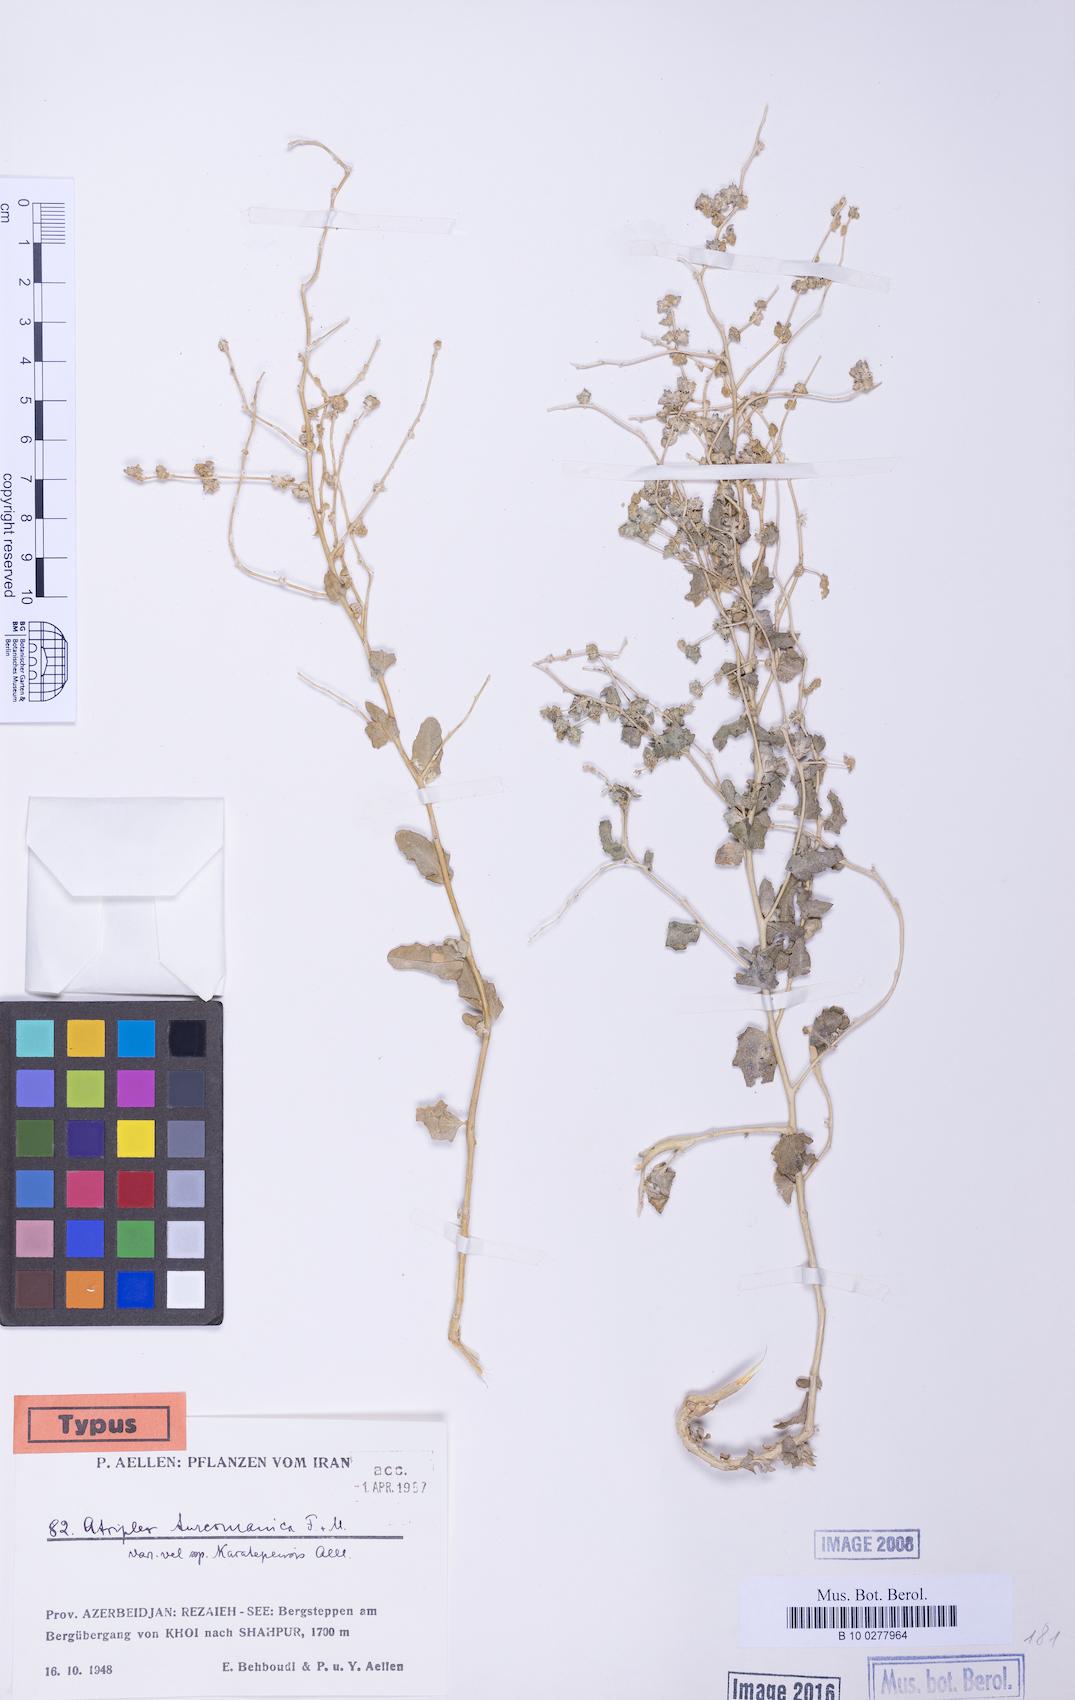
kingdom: Plantae
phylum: Tracheophyta
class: Magnoliopsida
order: Caryophyllales
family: Amaranthaceae
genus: Atriplex
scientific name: Atriplex turcomanica
